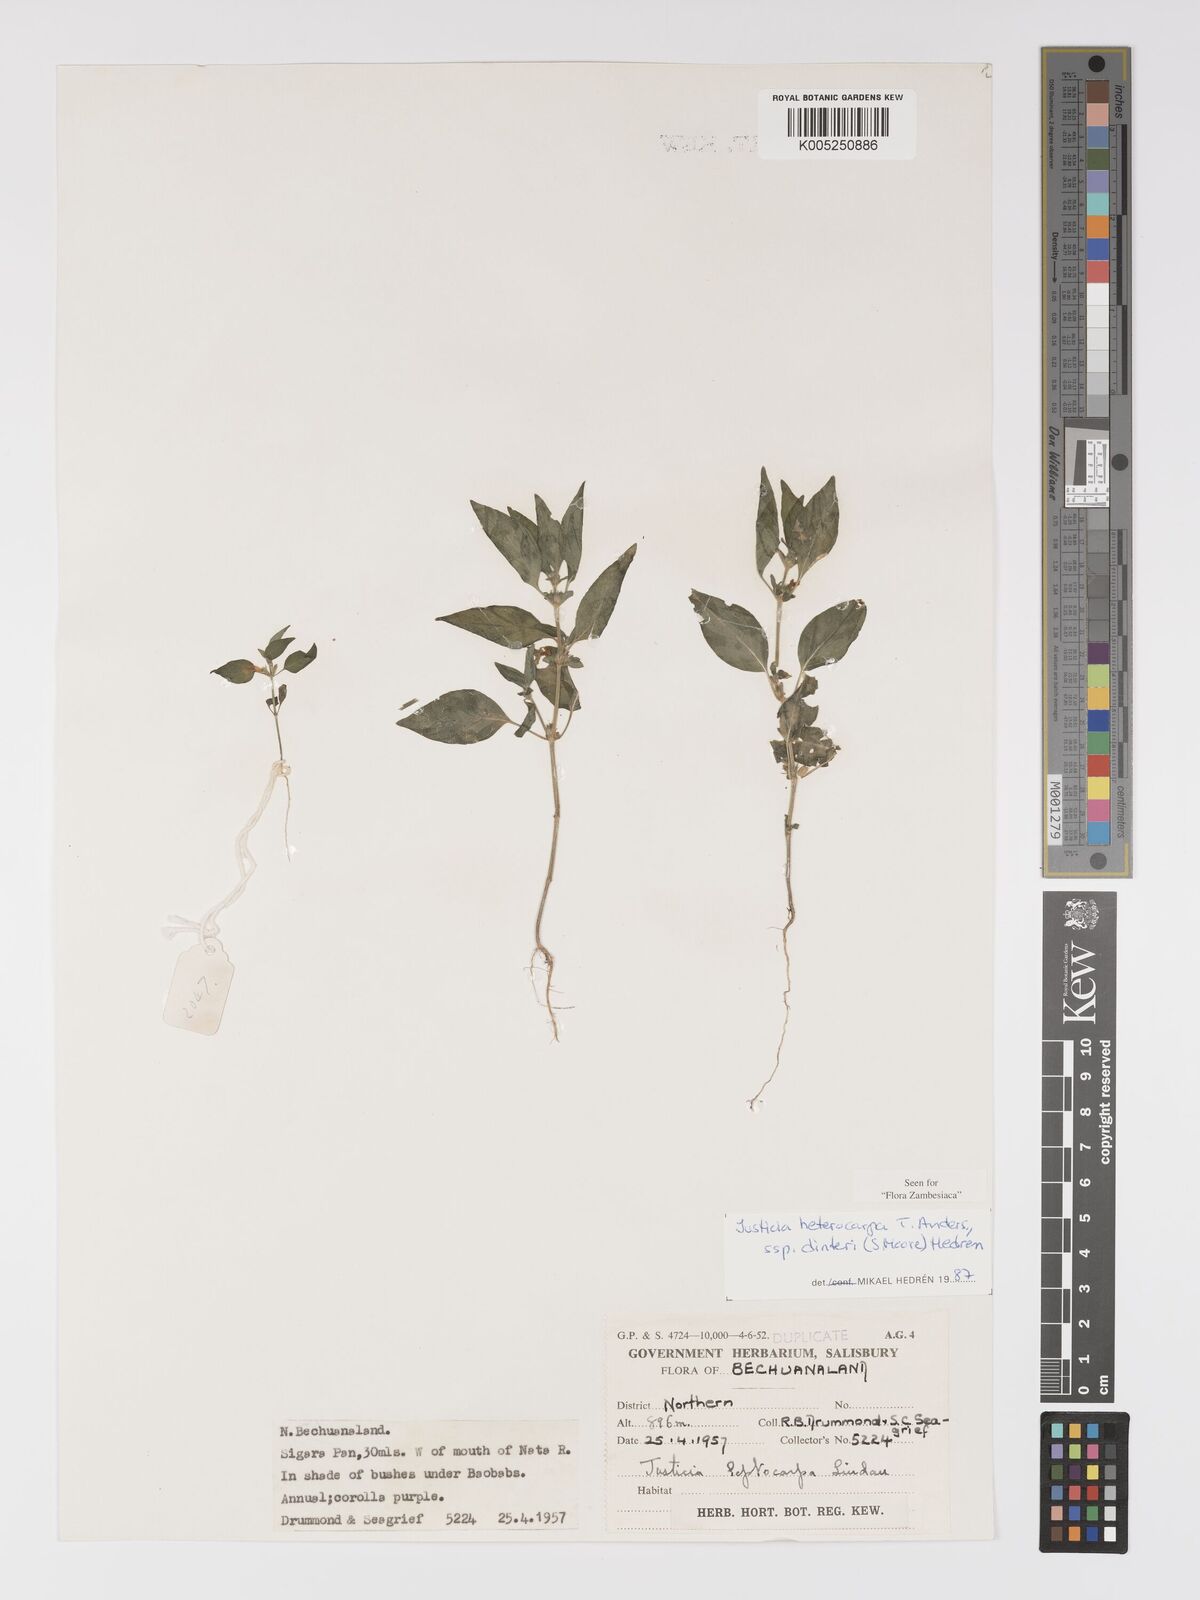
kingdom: Plantae
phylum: Tracheophyta
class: Magnoliopsida
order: Lamiales
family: Acanthaceae
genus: Justicia
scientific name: Justicia heterocarpa
